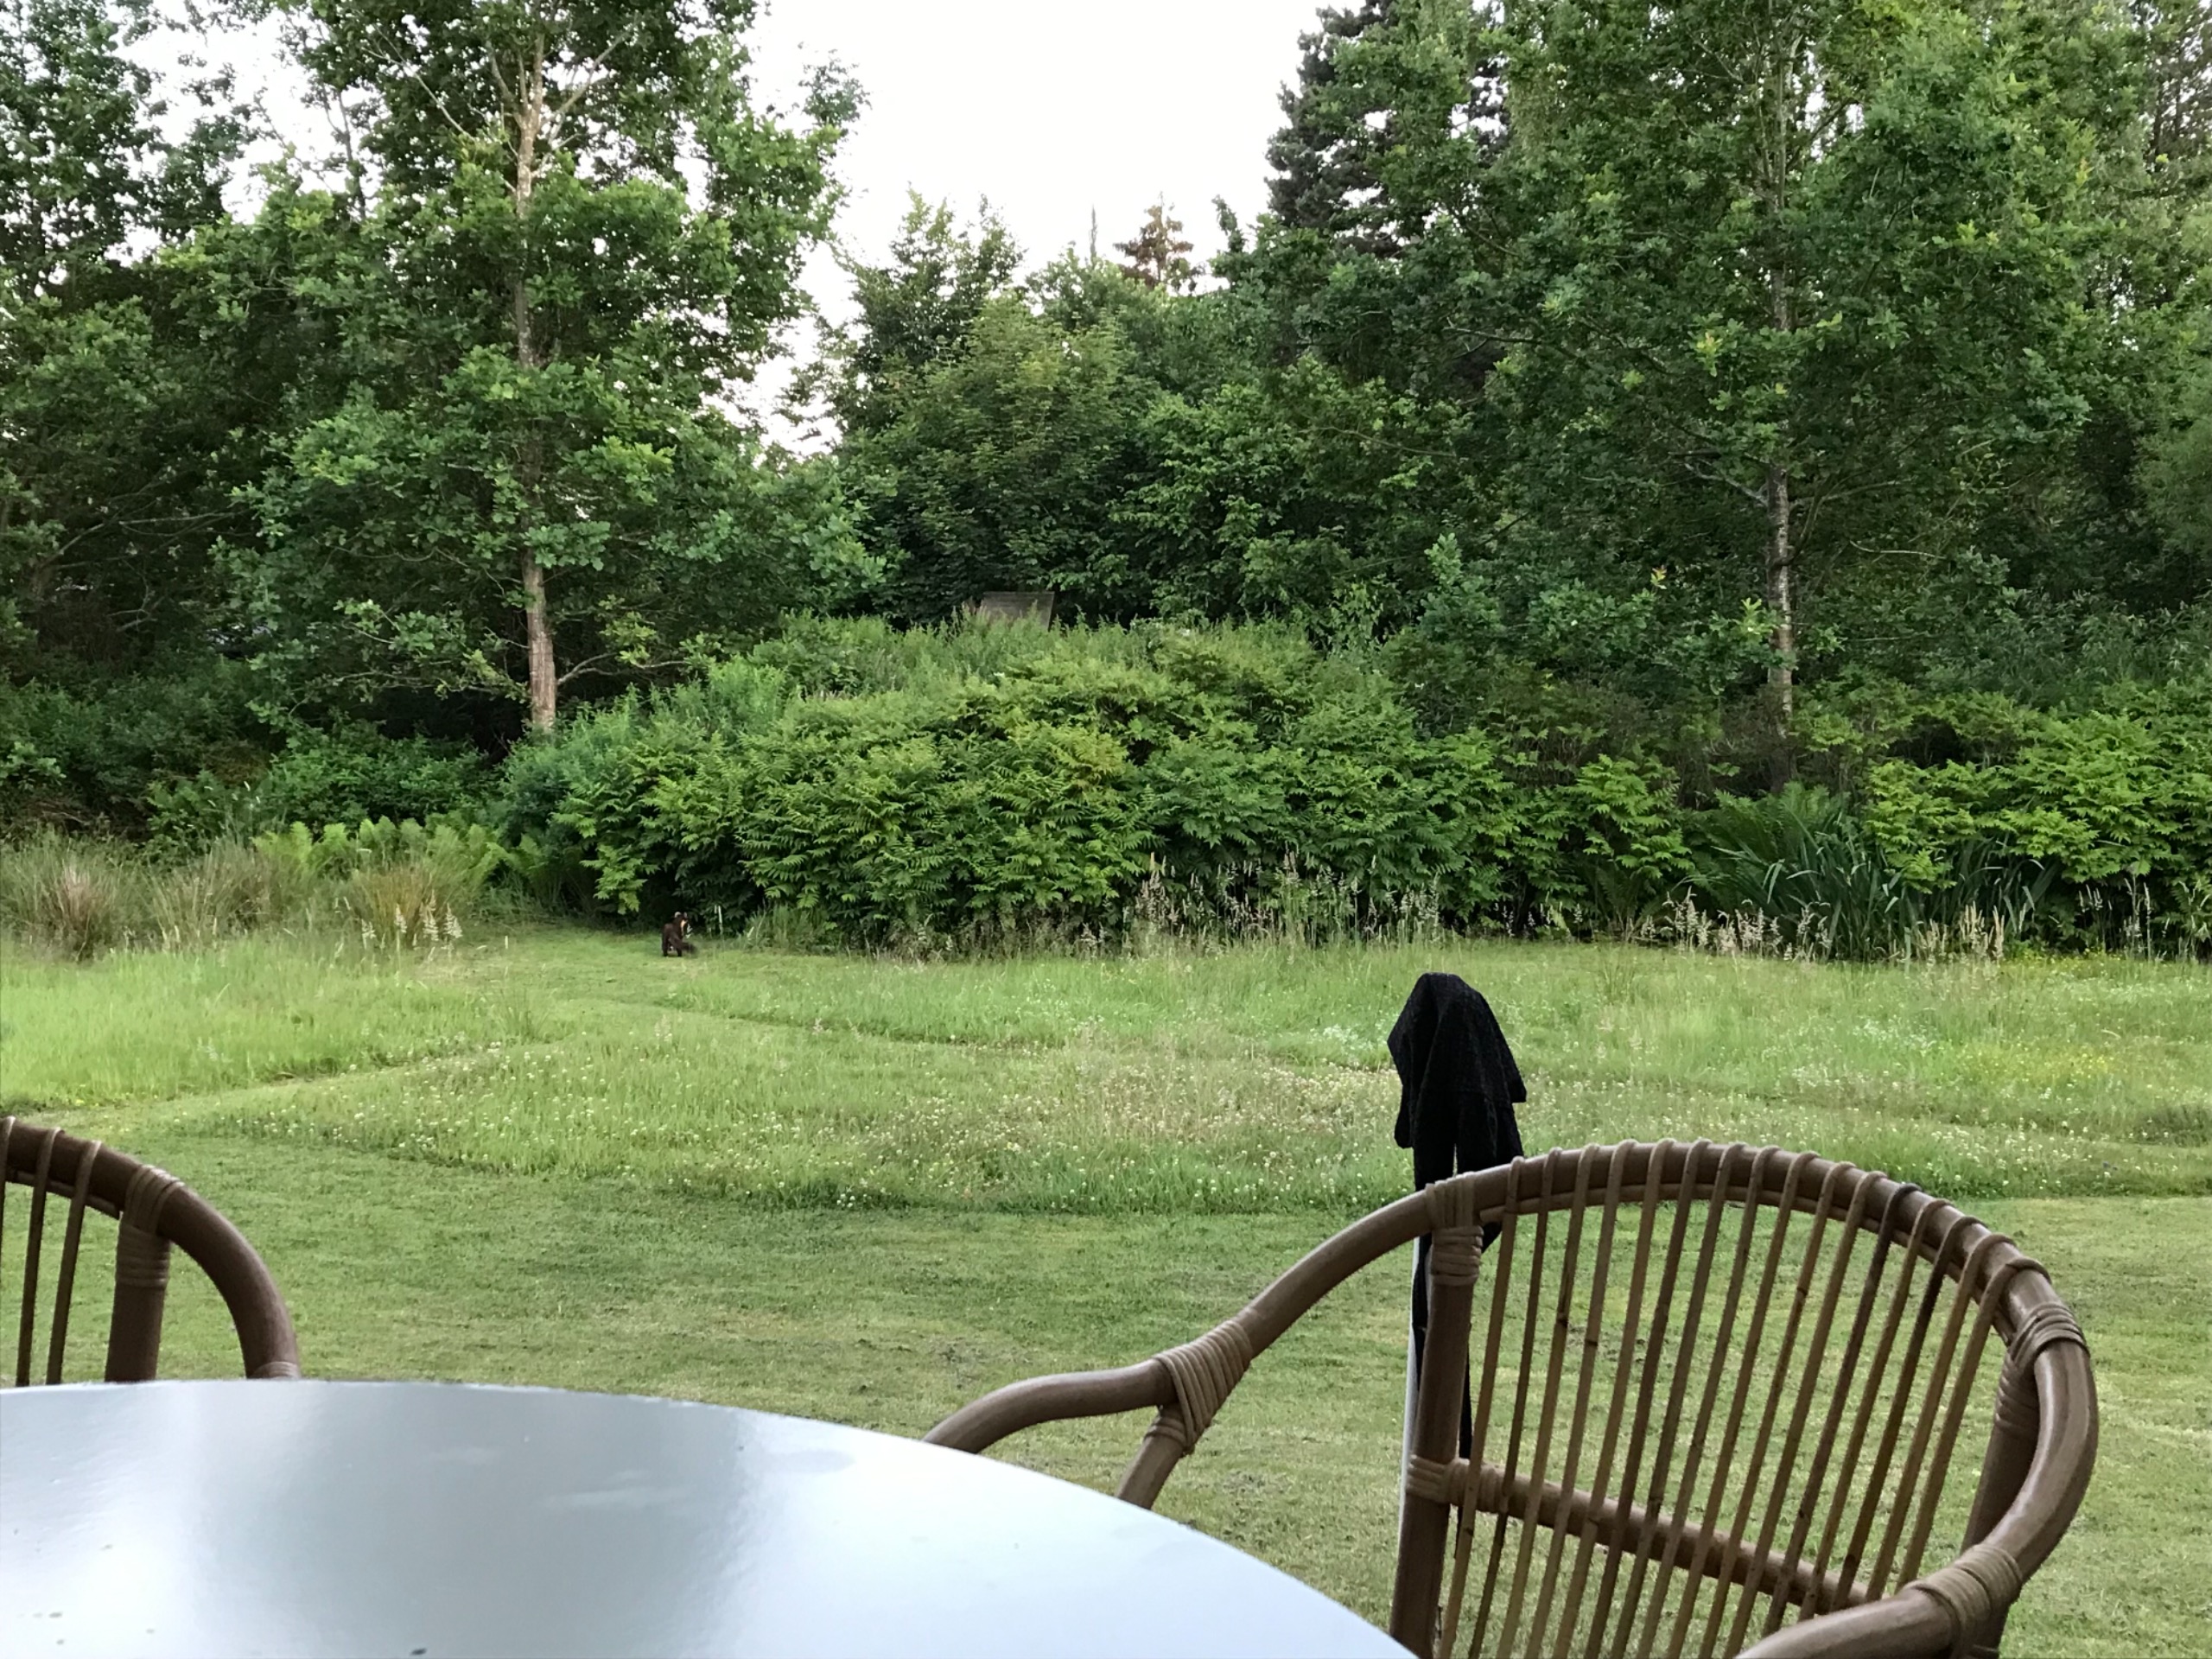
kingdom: Animalia
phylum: Chordata
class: Mammalia
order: Carnivora
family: Mustelidae
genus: Martes
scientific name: Martes martes
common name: Skovmår
